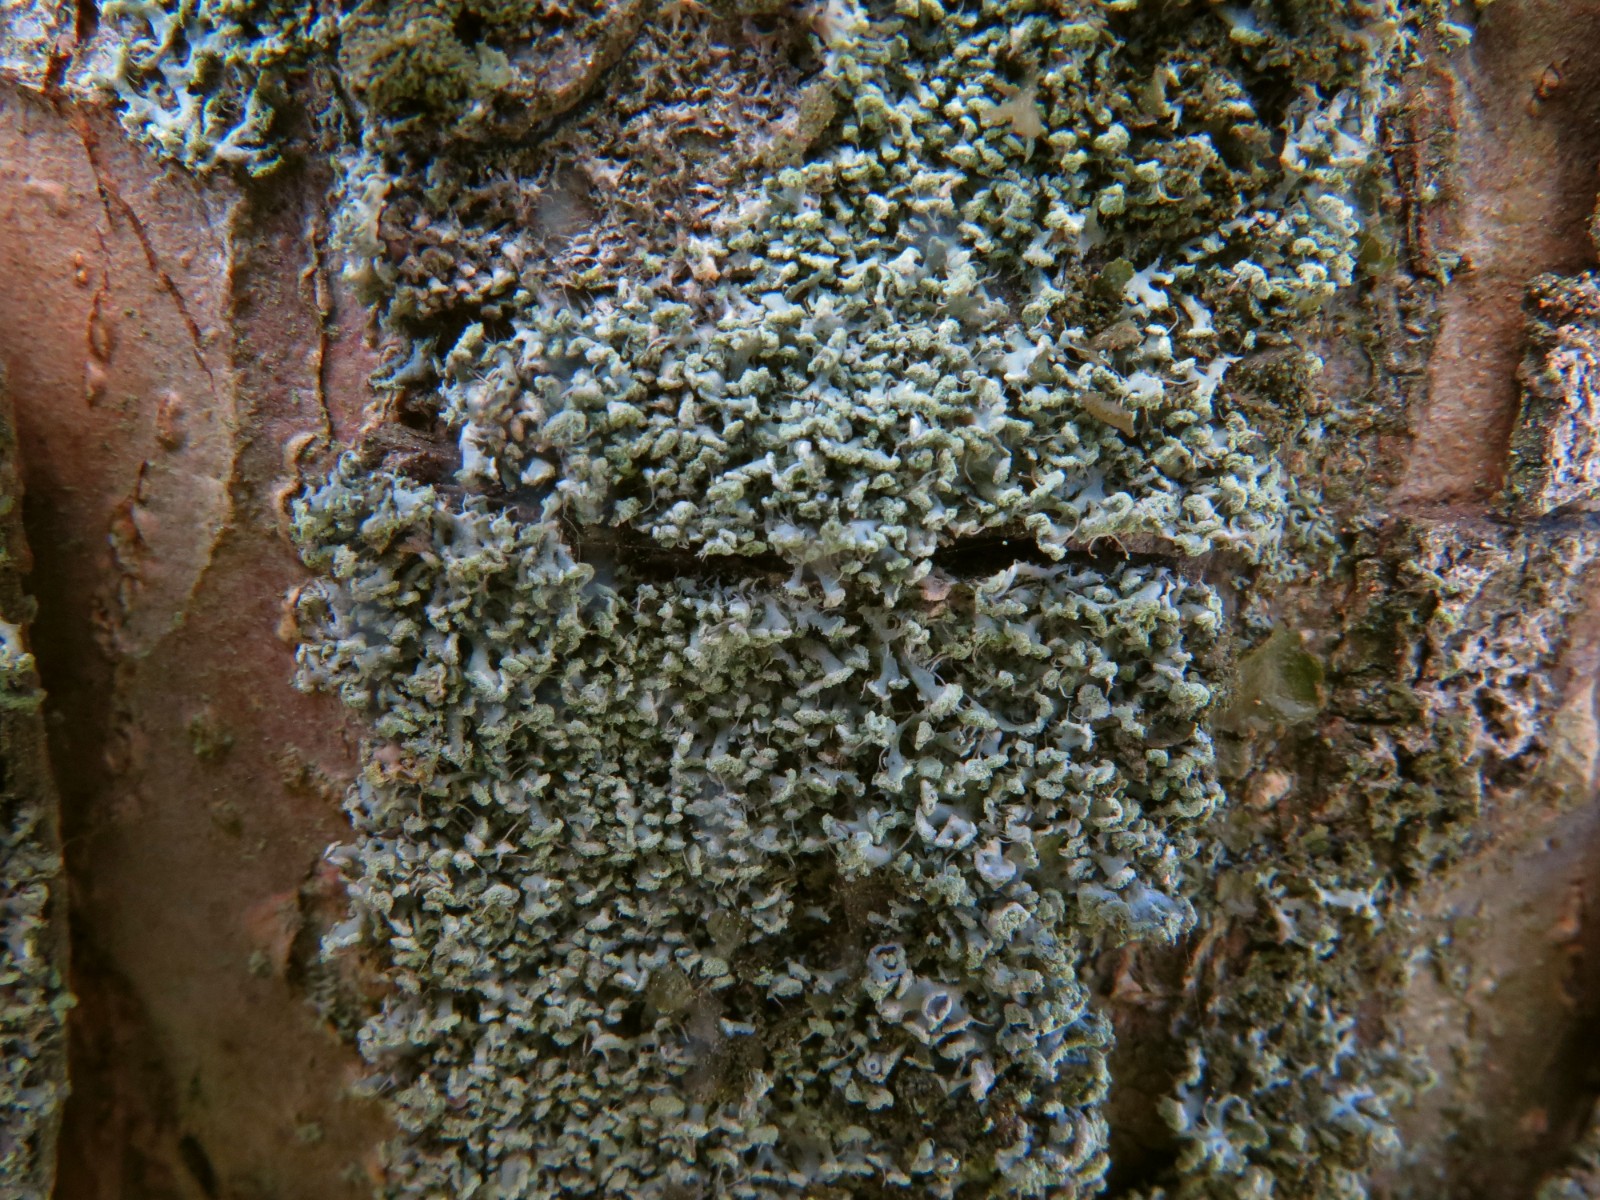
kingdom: Fungi
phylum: Ascomycota
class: Lecanoromycetes
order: Caliciales
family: Physciaceae
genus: Physcia
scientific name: Physcia tenella
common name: spæd rosetlav
